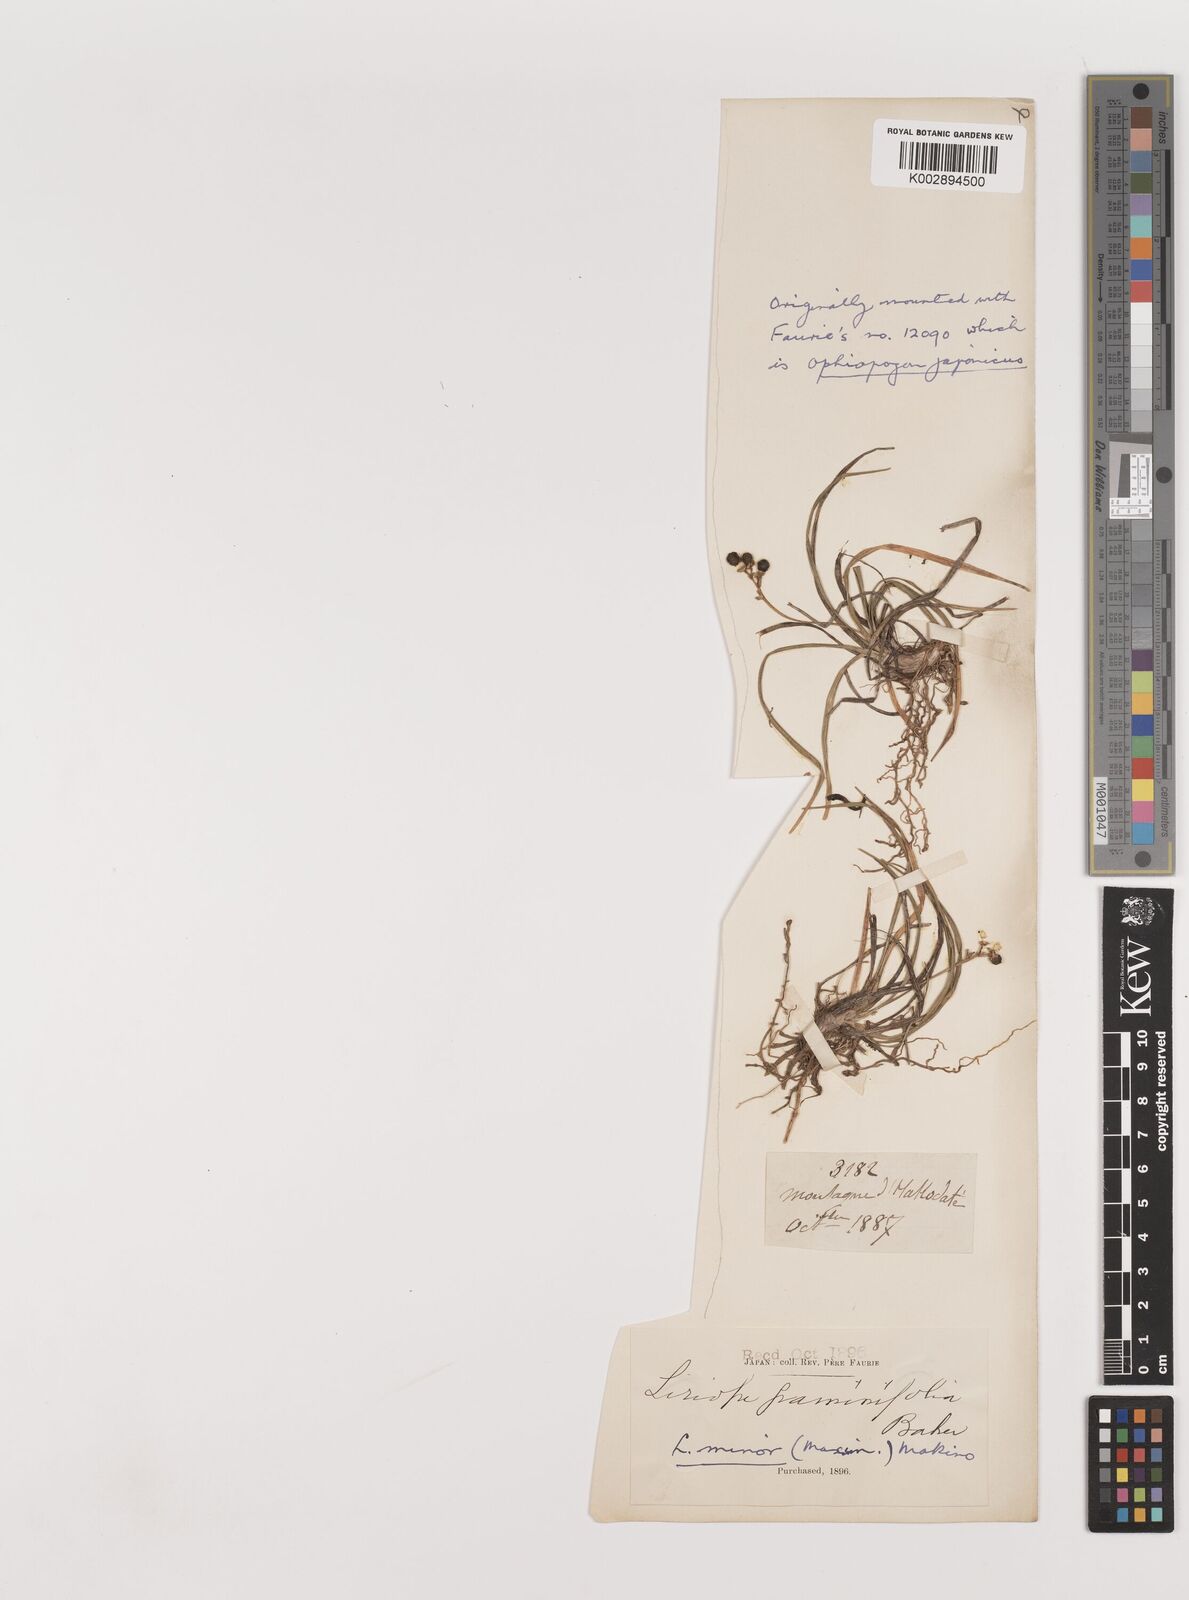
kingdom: Plantae
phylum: Tracheophyta
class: Liliopsida
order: Asparagales
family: Asparagaceae
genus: Liriope
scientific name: Liriope minor
